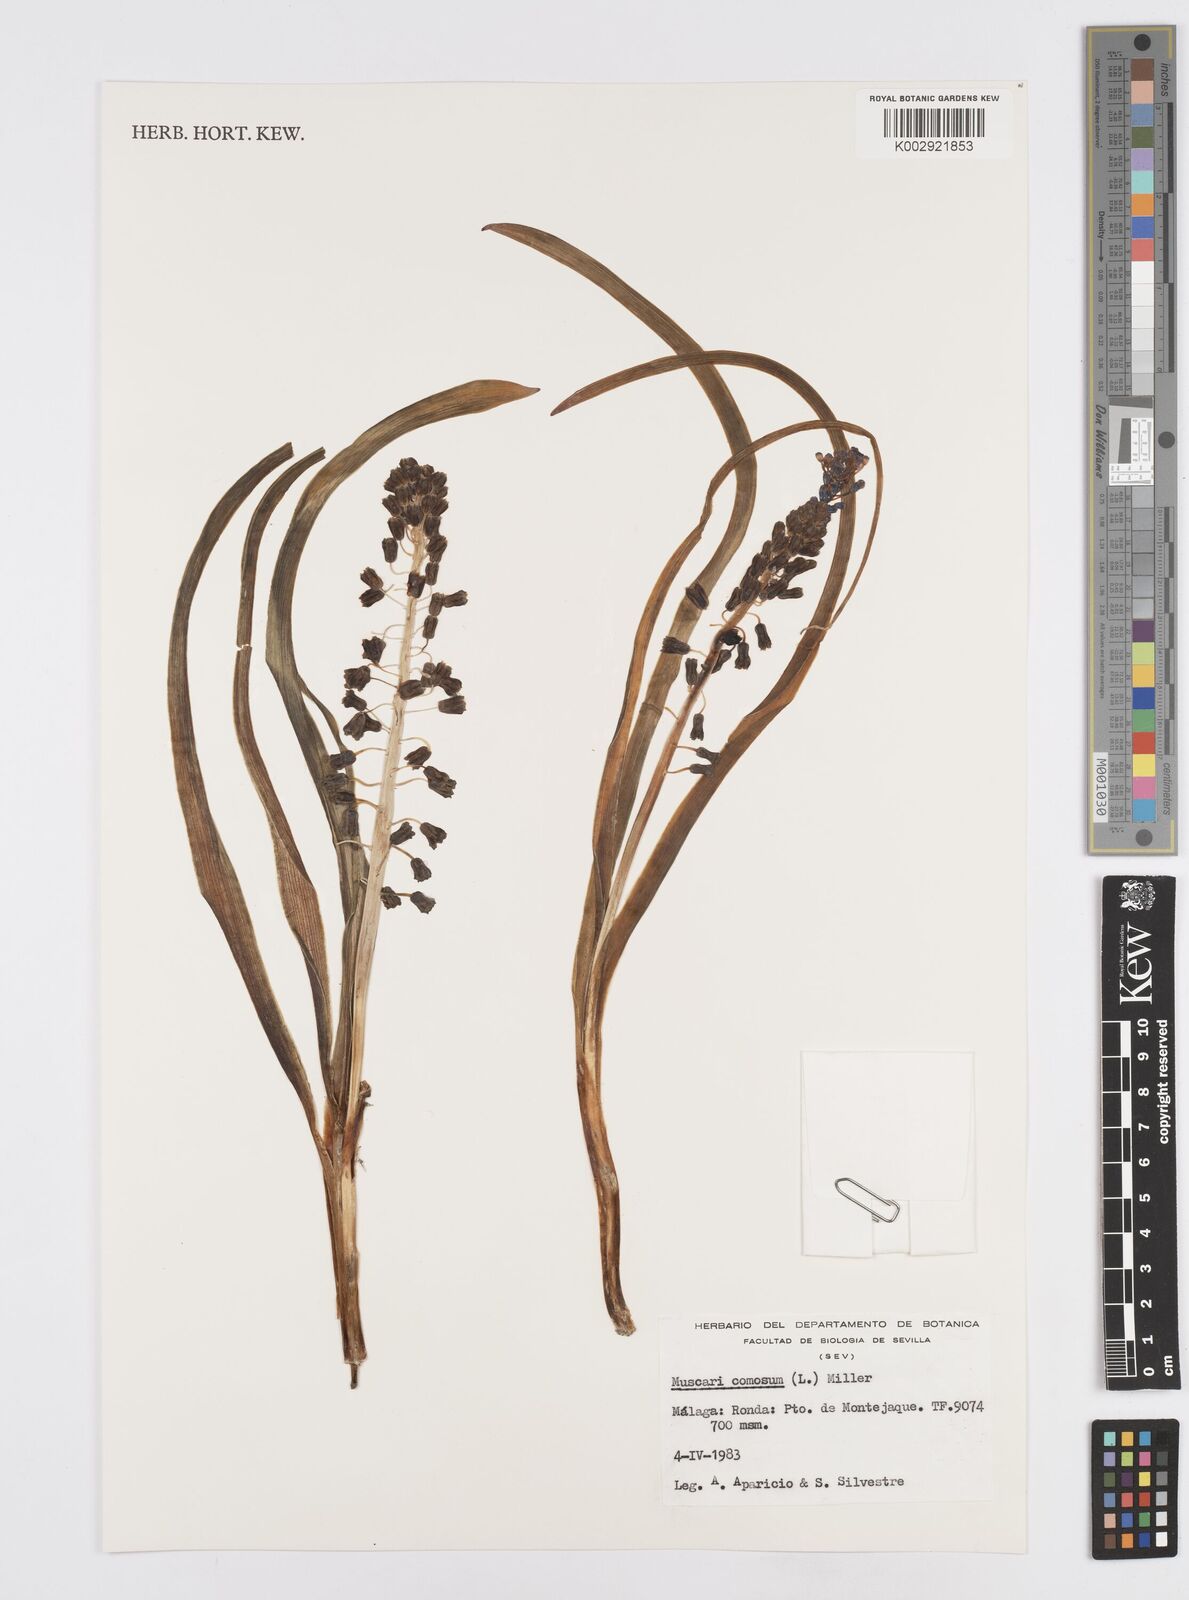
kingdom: Plantae
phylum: Tracheophyta
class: Liliopsida
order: Asparagales
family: Asparagaceae
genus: Muscari
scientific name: Muscari comosum
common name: Tassel hyacinth
